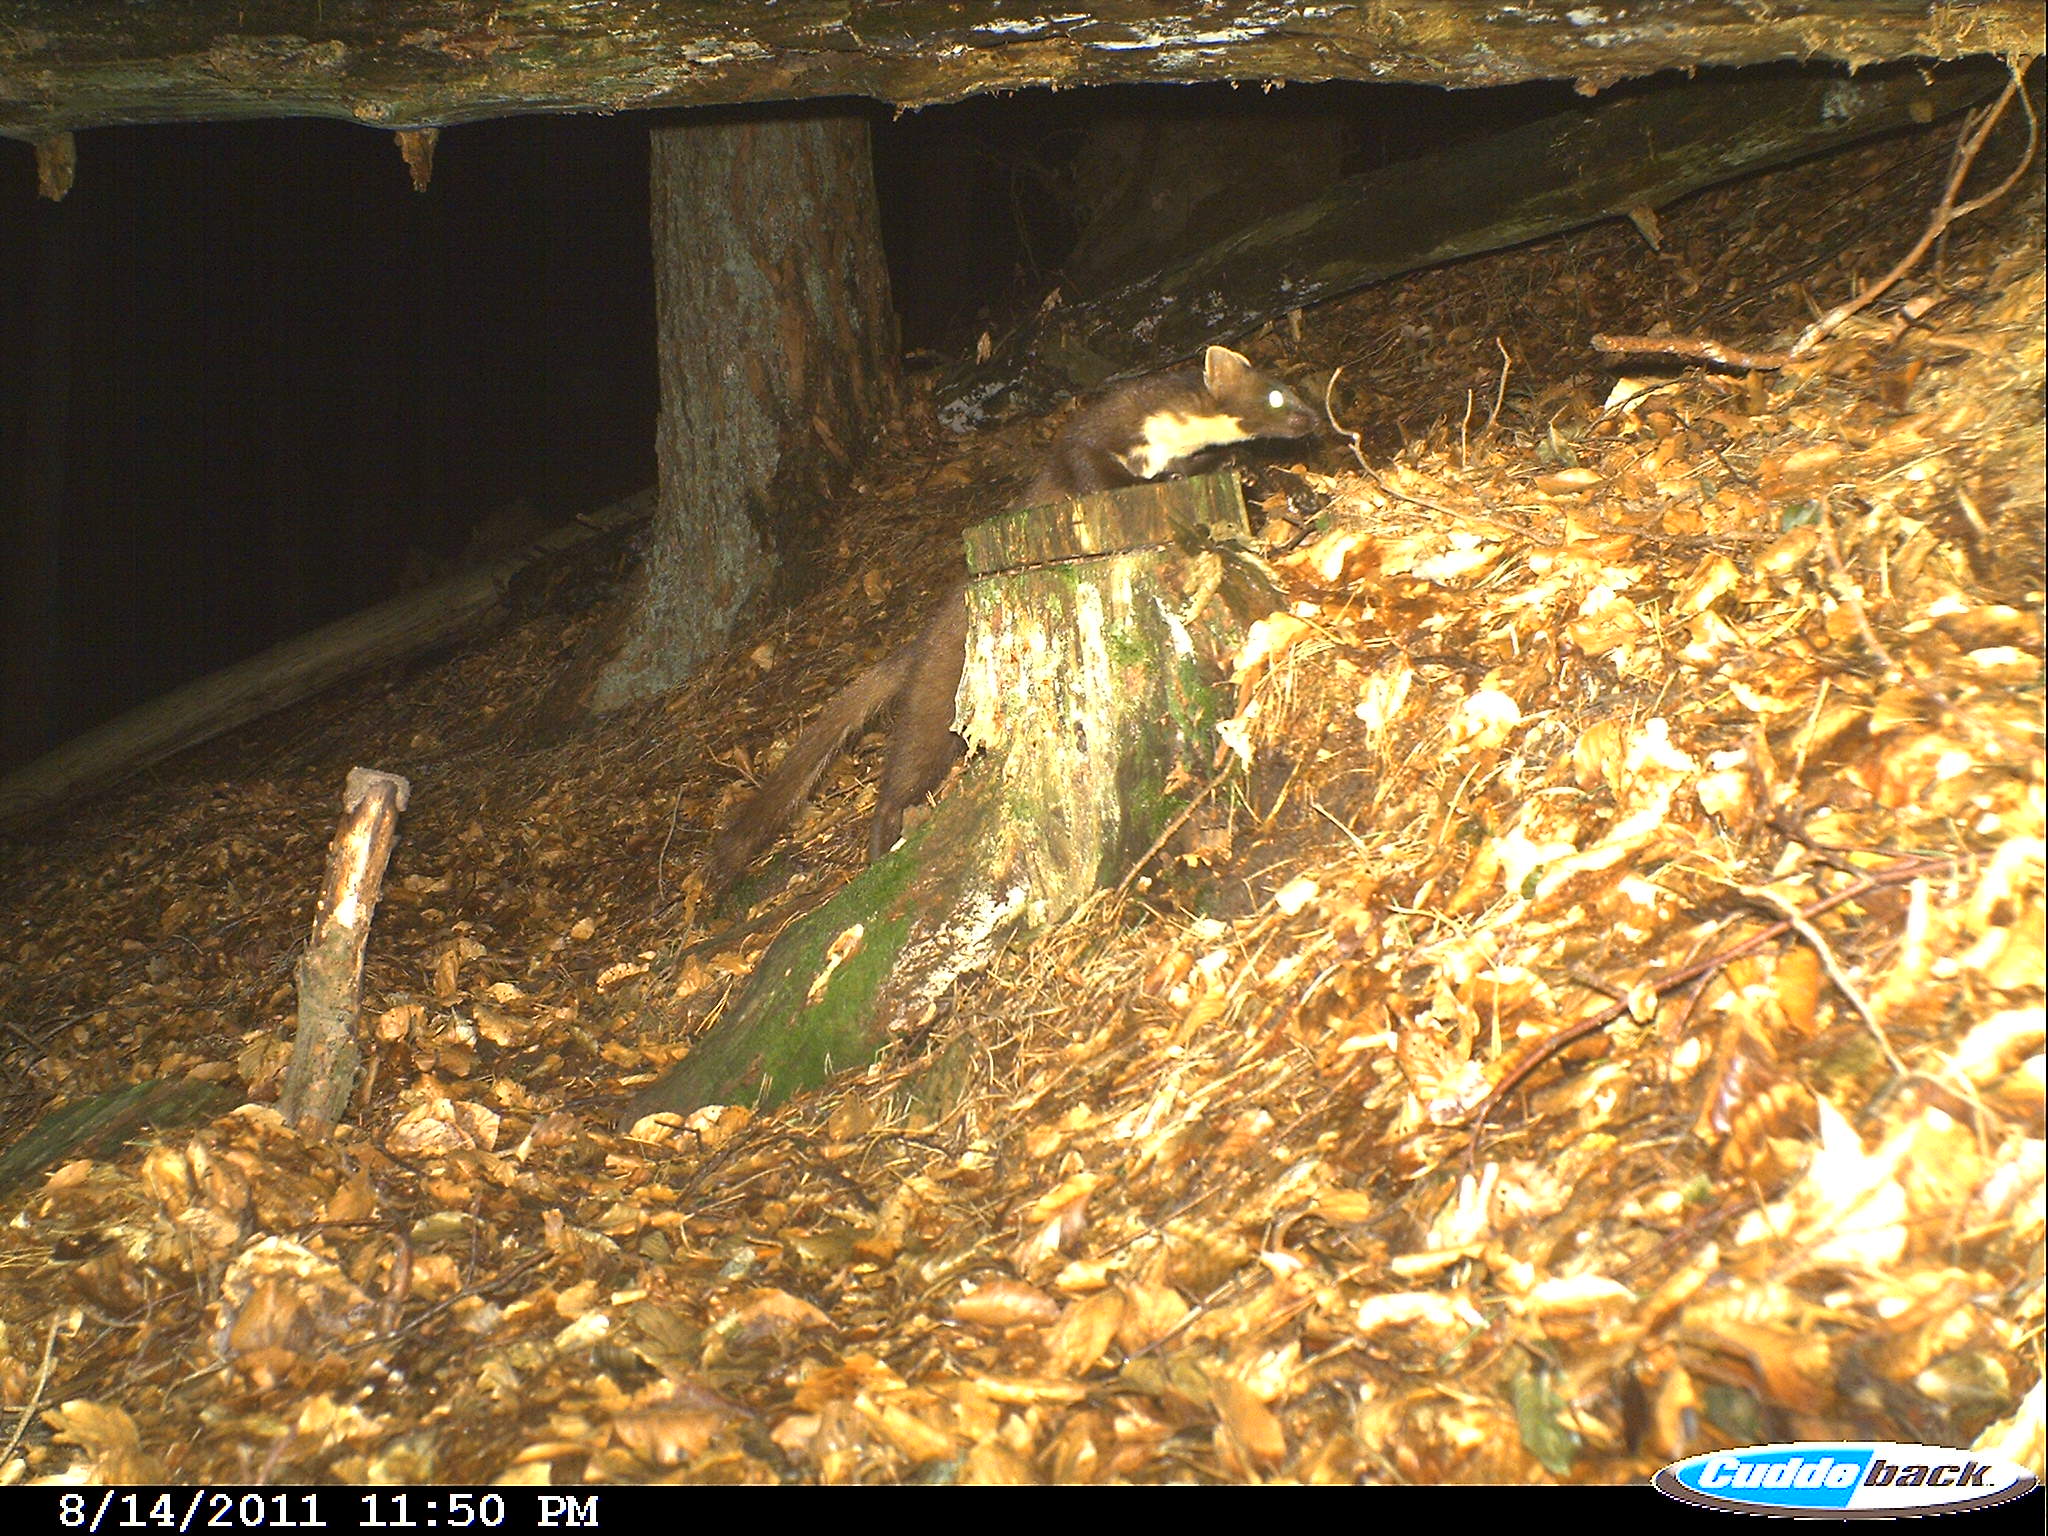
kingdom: Animalia
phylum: Chordata
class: Mammalia
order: Carnivora
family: Mustelidae
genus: Martes
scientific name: Martes martes
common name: European pine marten
